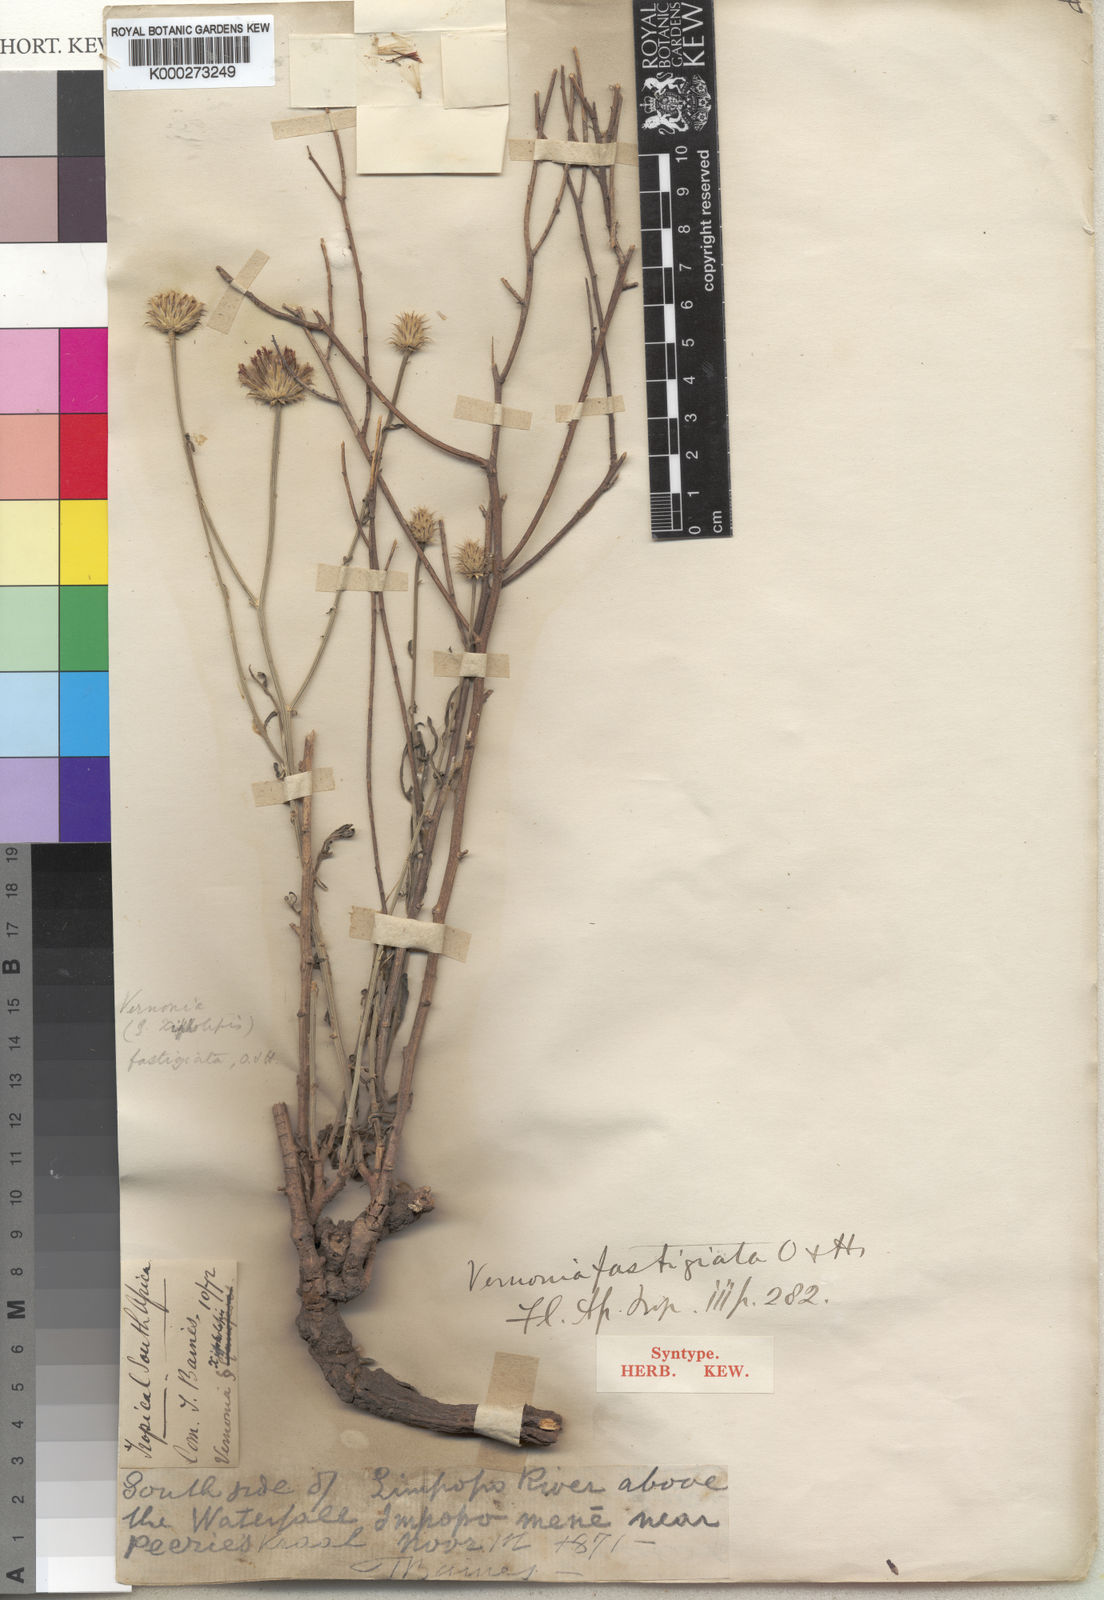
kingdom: Plantae
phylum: Tracheophyta
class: Magnoliopsida
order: Asterales
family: Asteraceae
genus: Parapolydora
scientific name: Parapolydora fastigiata
